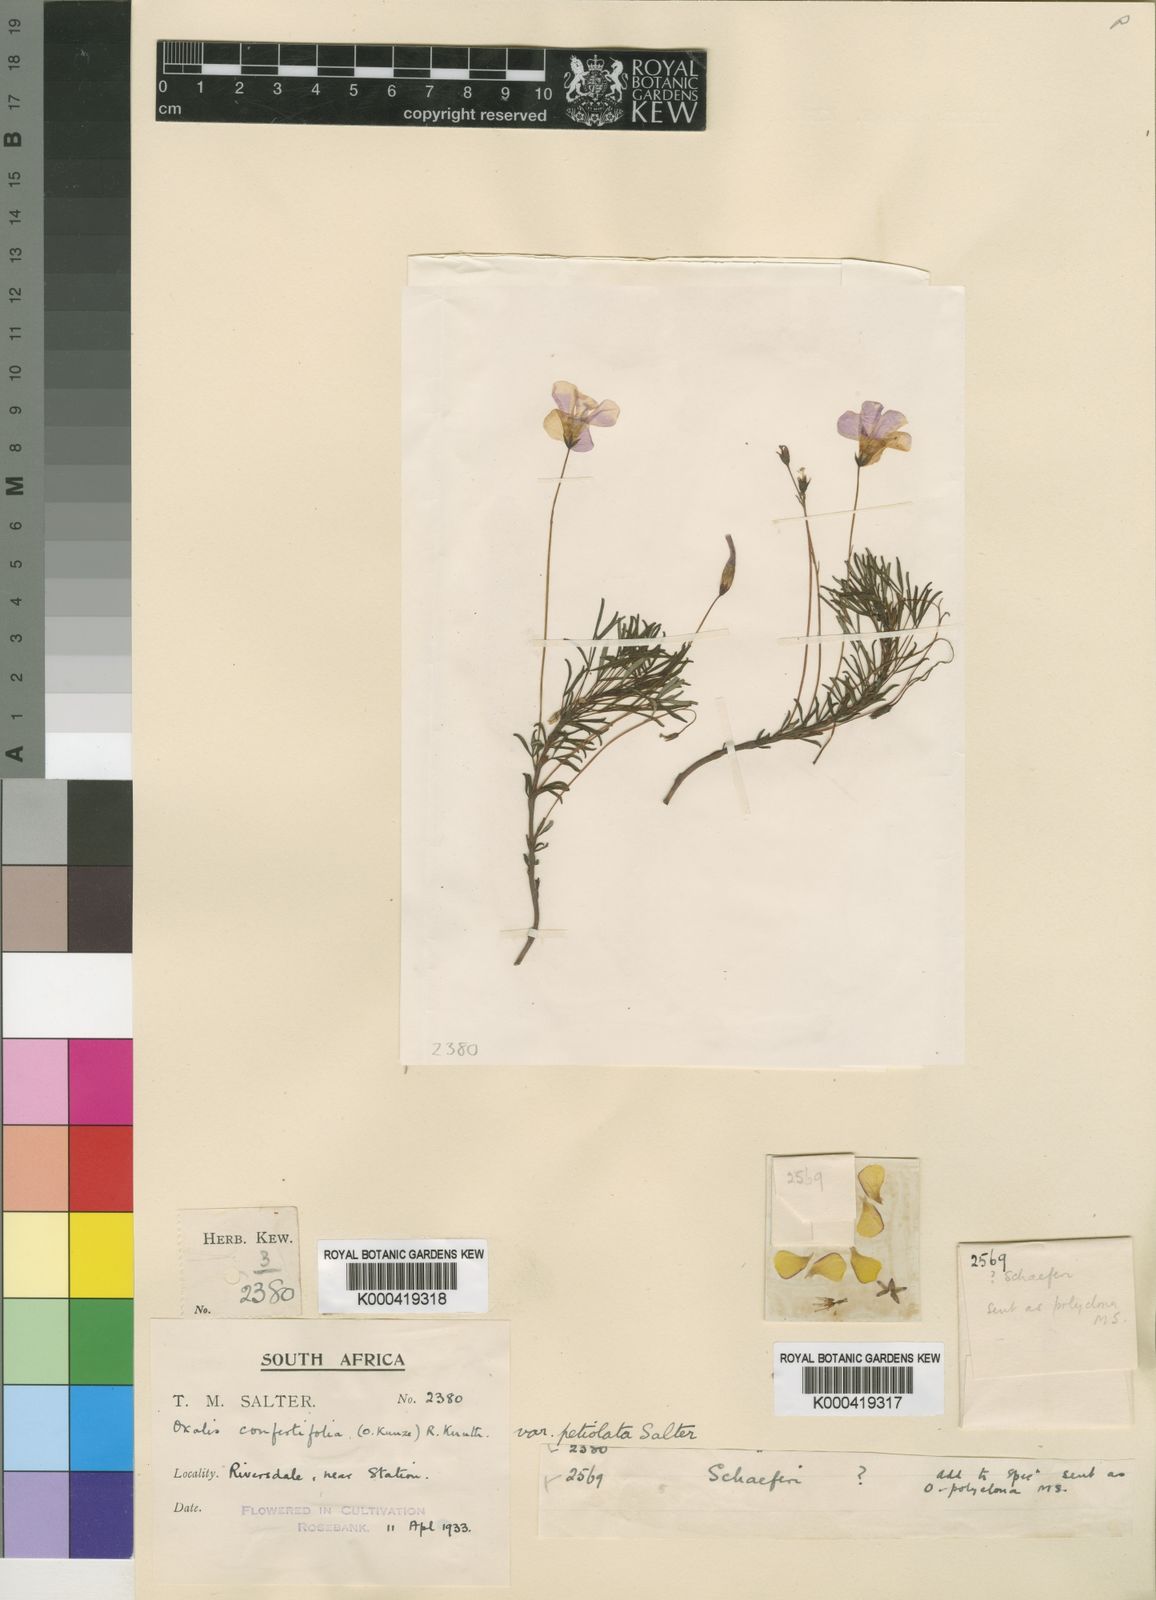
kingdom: Plantae
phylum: Tracheophyta
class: Magnoliopsida
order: Oxalidales
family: Oxalidaceae
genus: Oxalis
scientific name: Oxalis confertifolia
